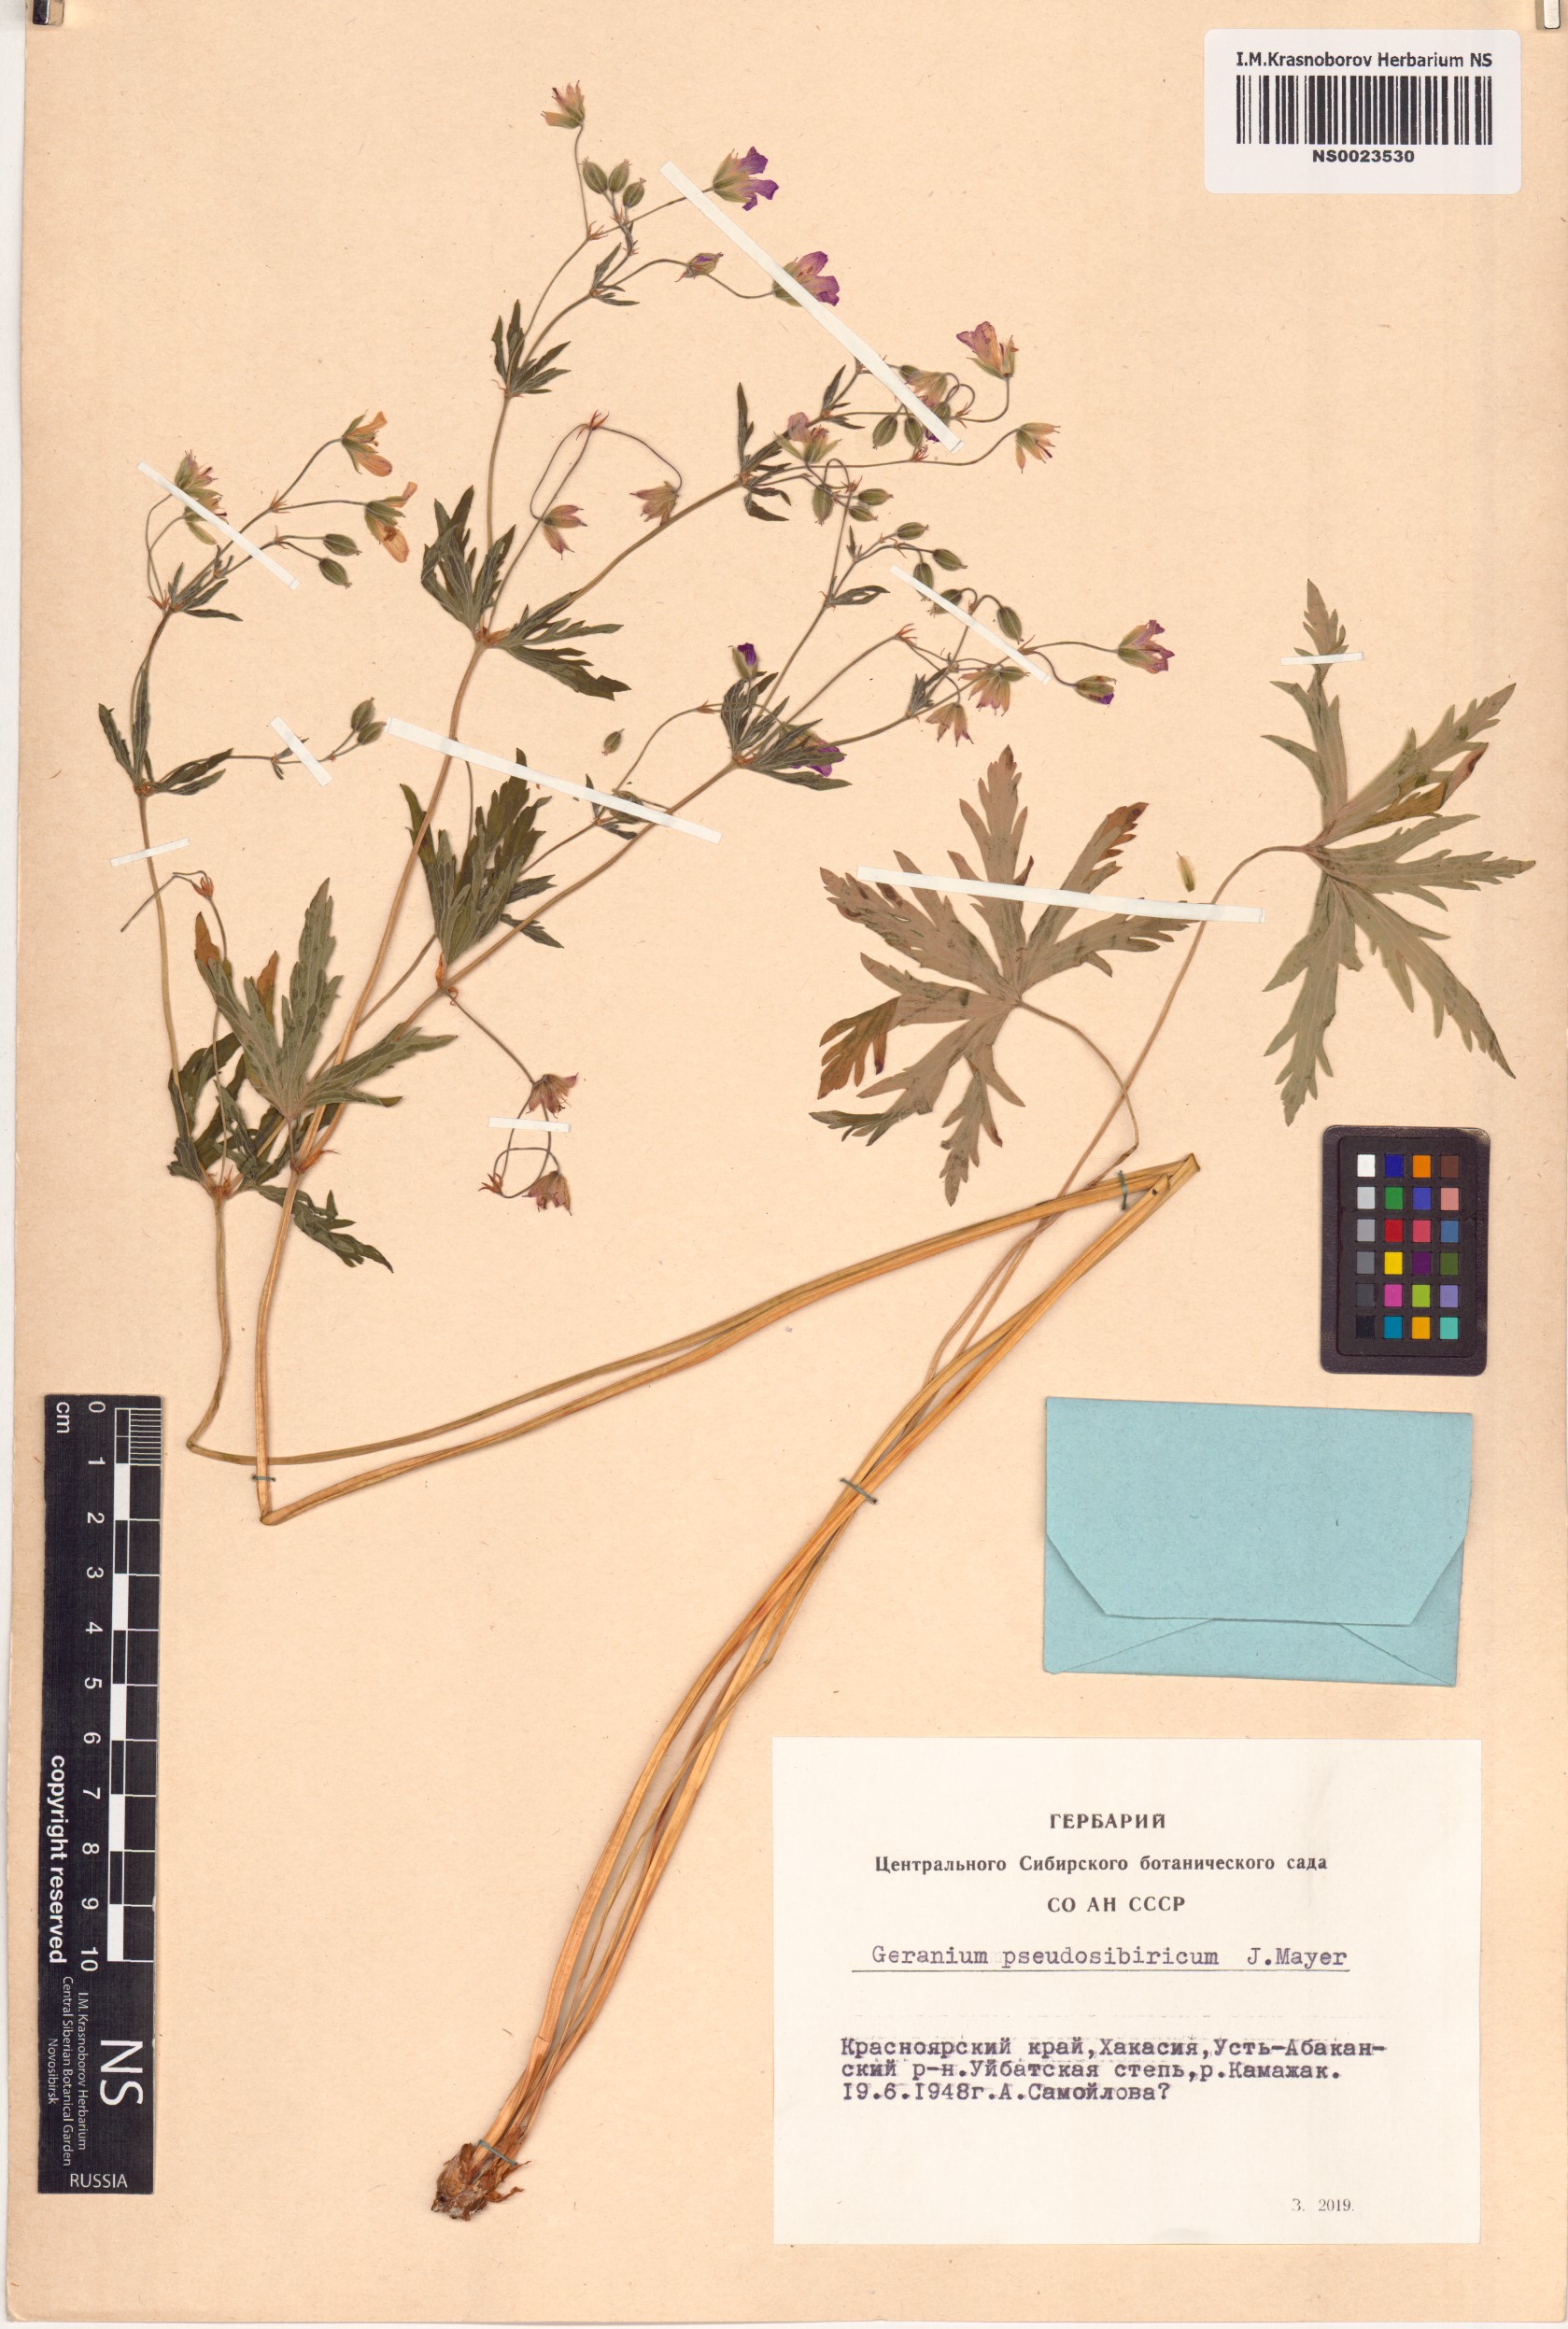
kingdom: Plantae
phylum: Tracheophyta
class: Magnoliopsida
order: Geraniales
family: Geraniaceae
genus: Geranium
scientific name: Geranium pseudosibiricum
